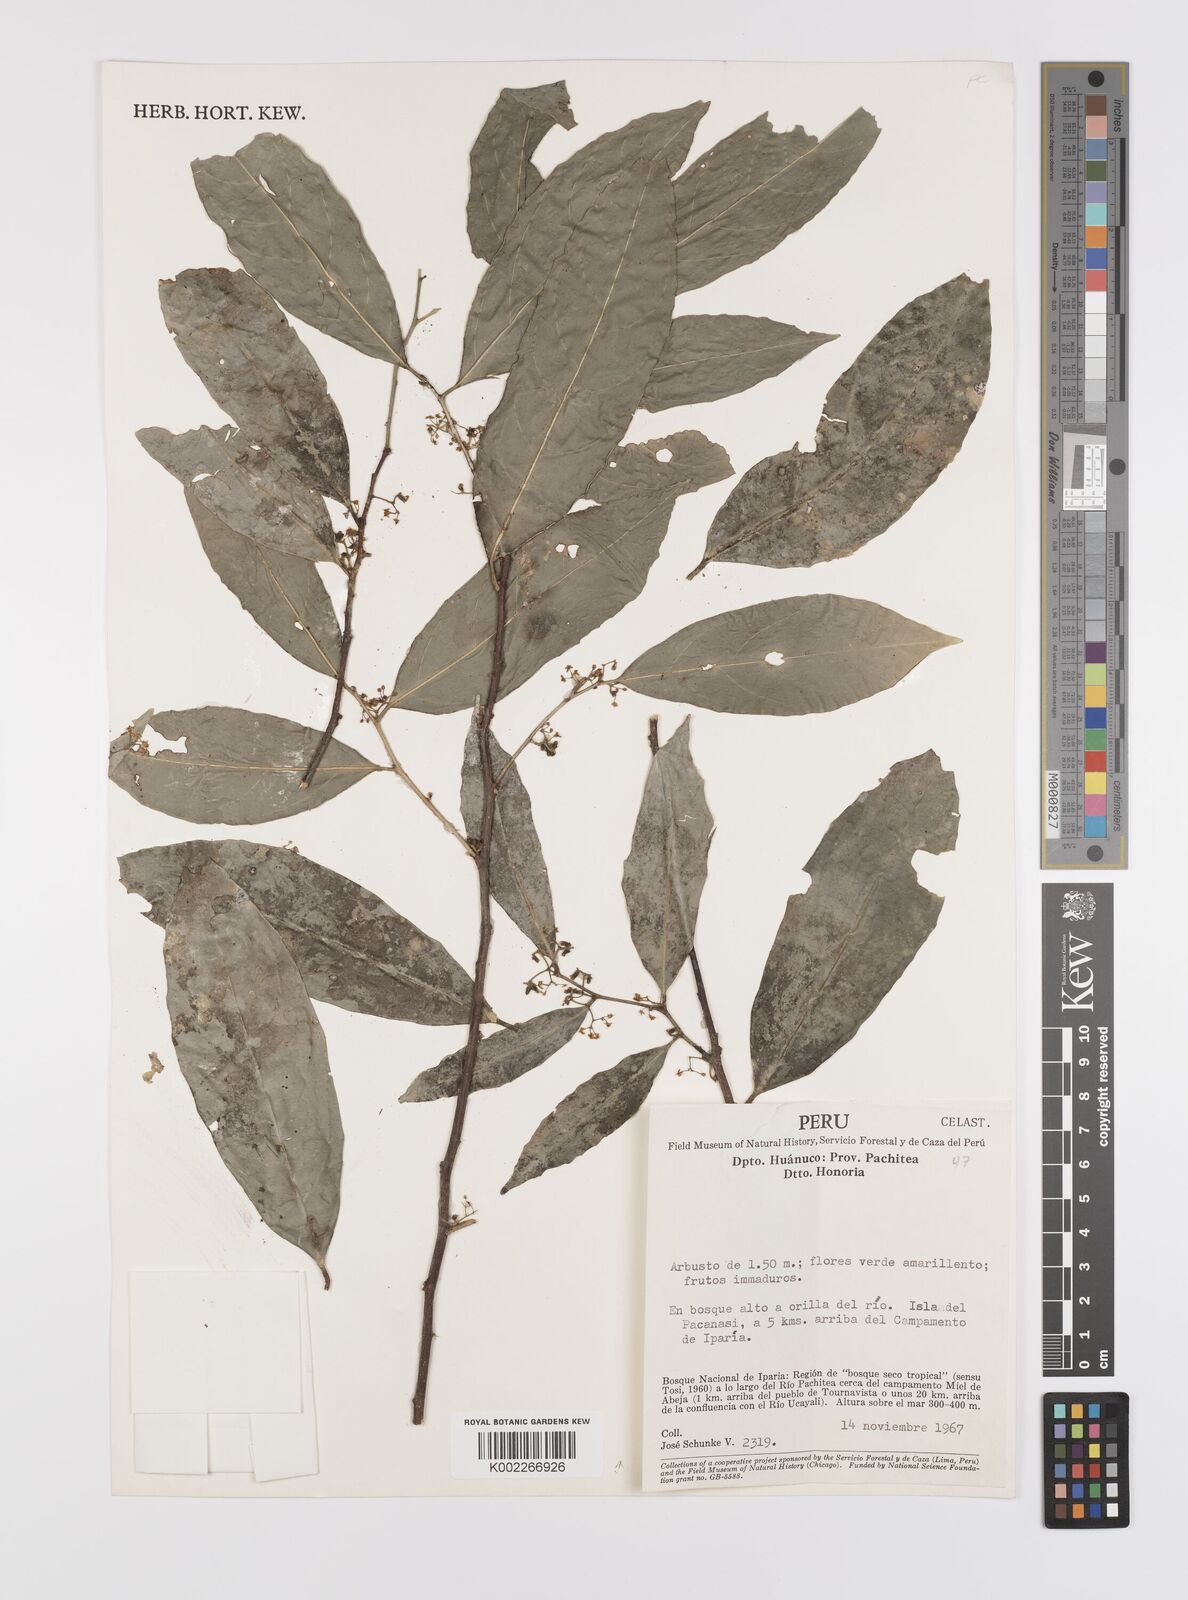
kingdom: Plantae
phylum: Tracheophyta
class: Magnoliopsida
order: Celastrales
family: Celastraceae
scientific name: Celastraceae
